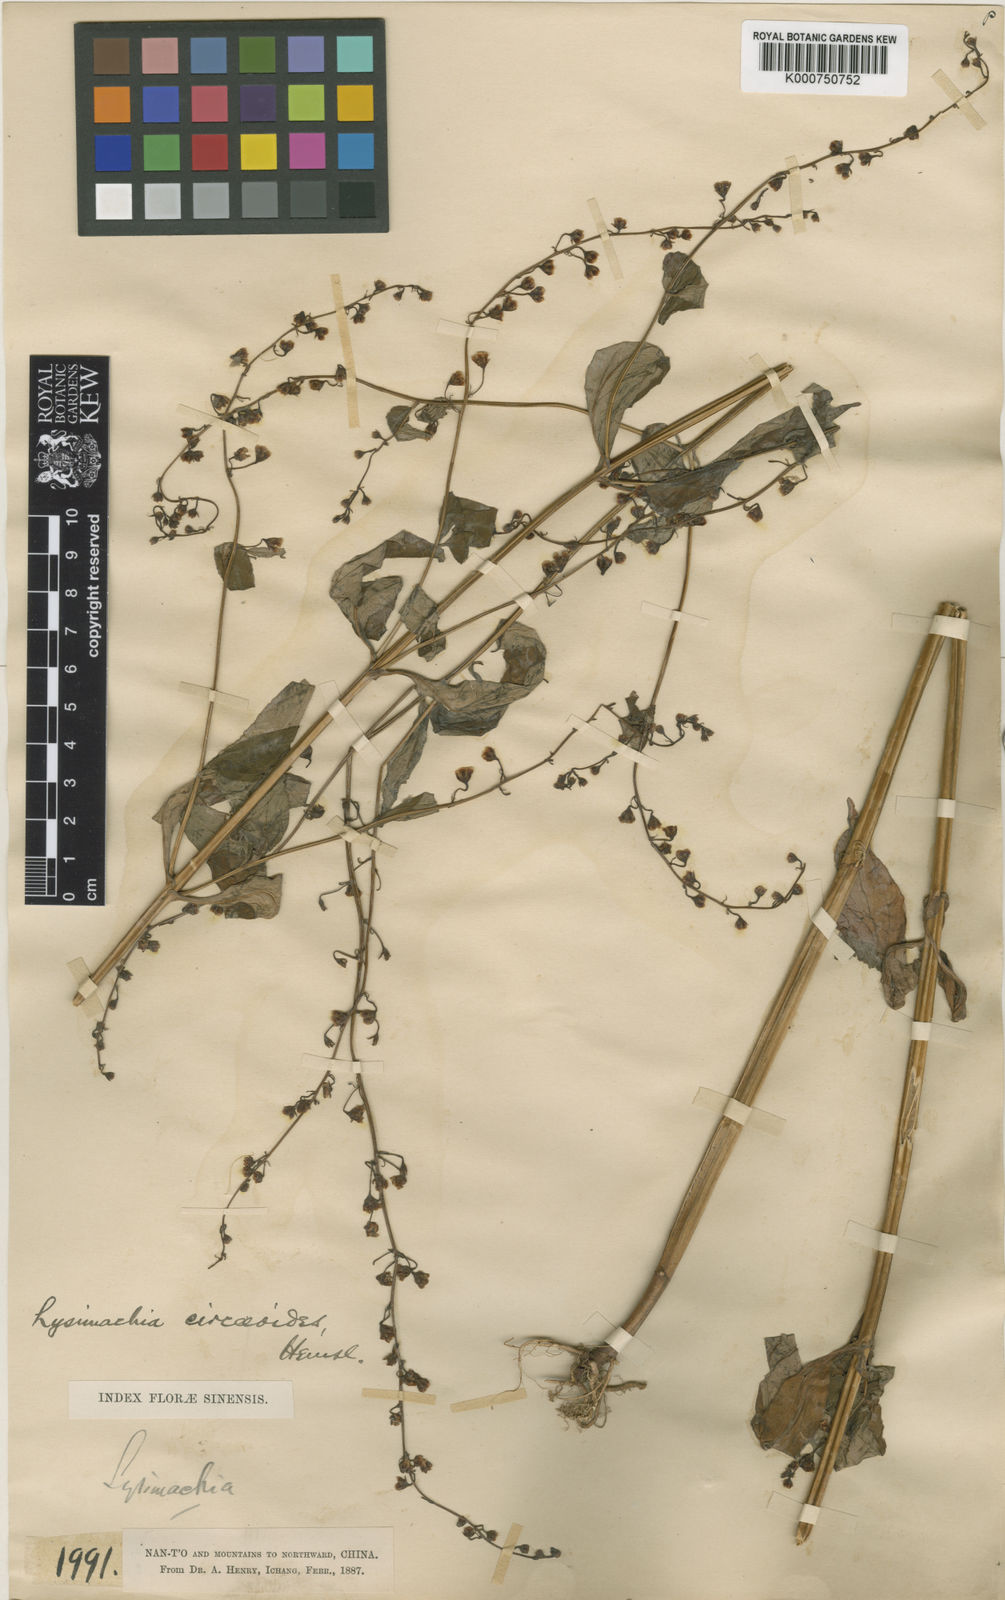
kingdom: Plantae
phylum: Tracheophyta
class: Magnoliopsida
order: Ericales
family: Primulaceae
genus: Lysimachia
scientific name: Lysimachia circaeoides
